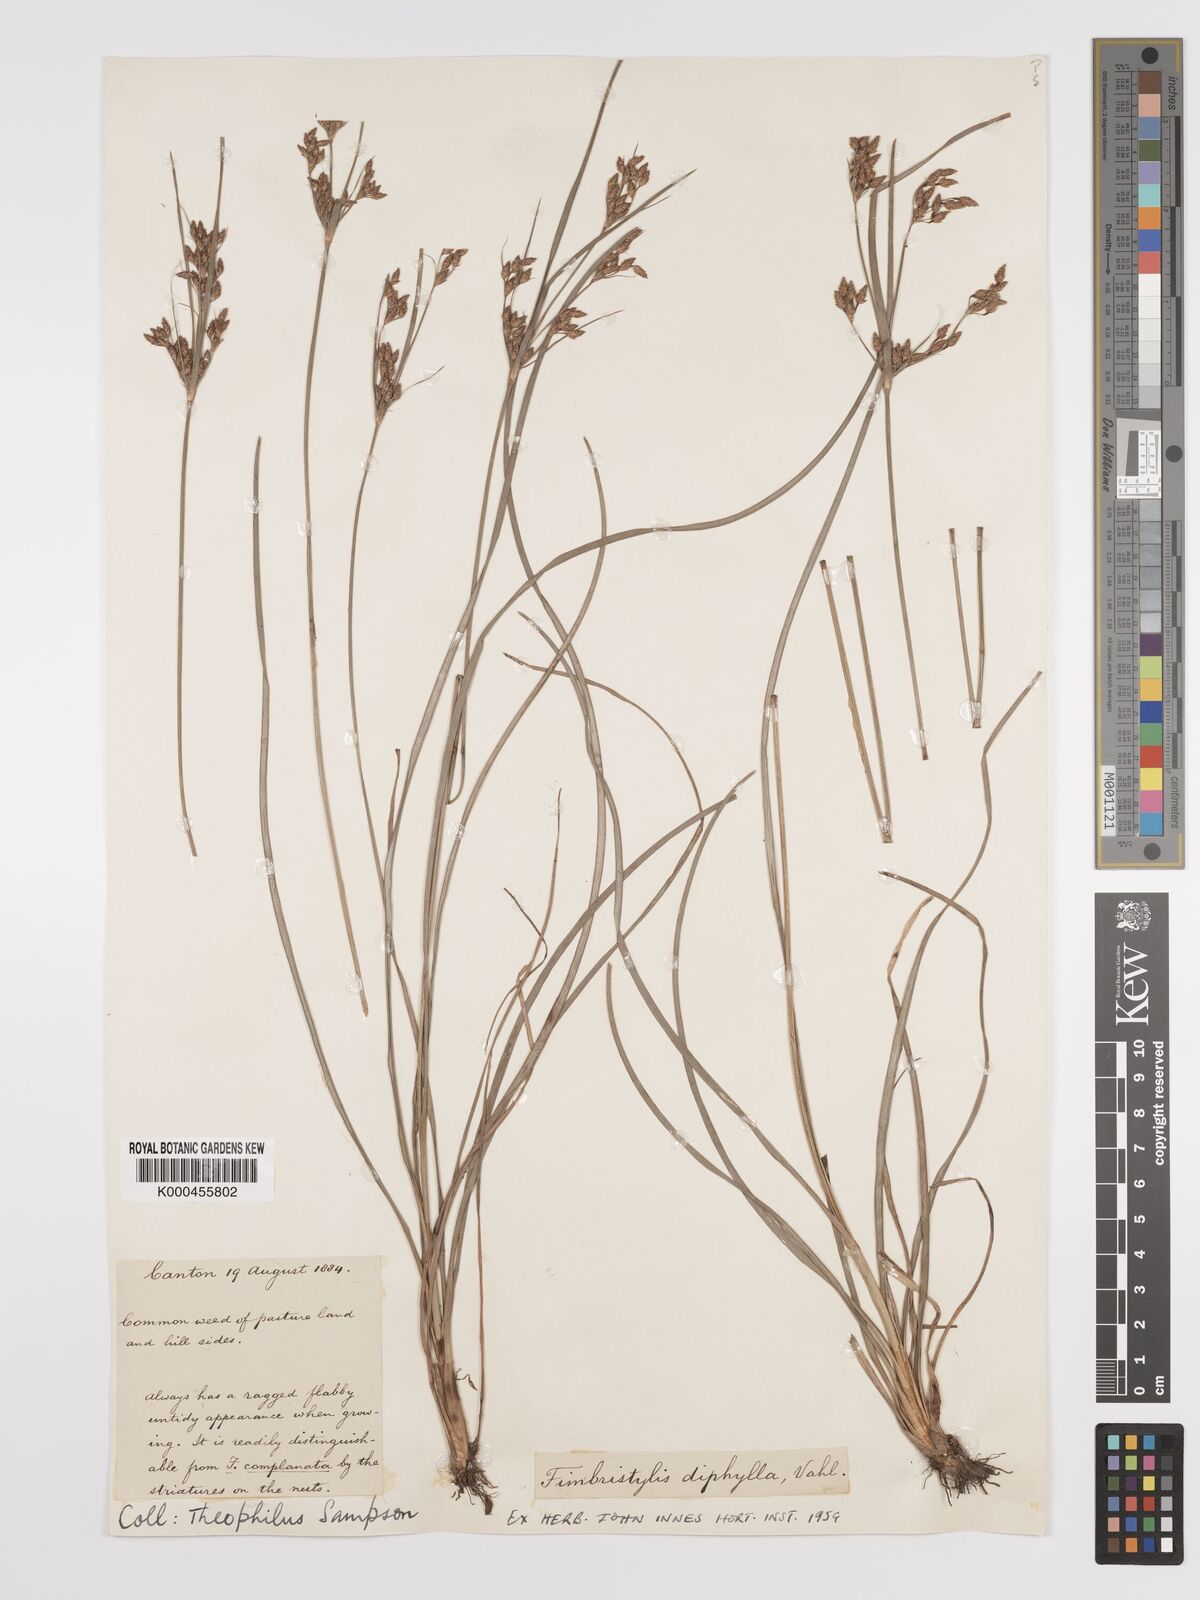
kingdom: Plantae
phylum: Tracheophyta
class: Liliopsida
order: Poales
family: Cyperaceae
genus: Fimbristylis
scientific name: Fimbristylis dichotoma
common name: Forked fimbry
